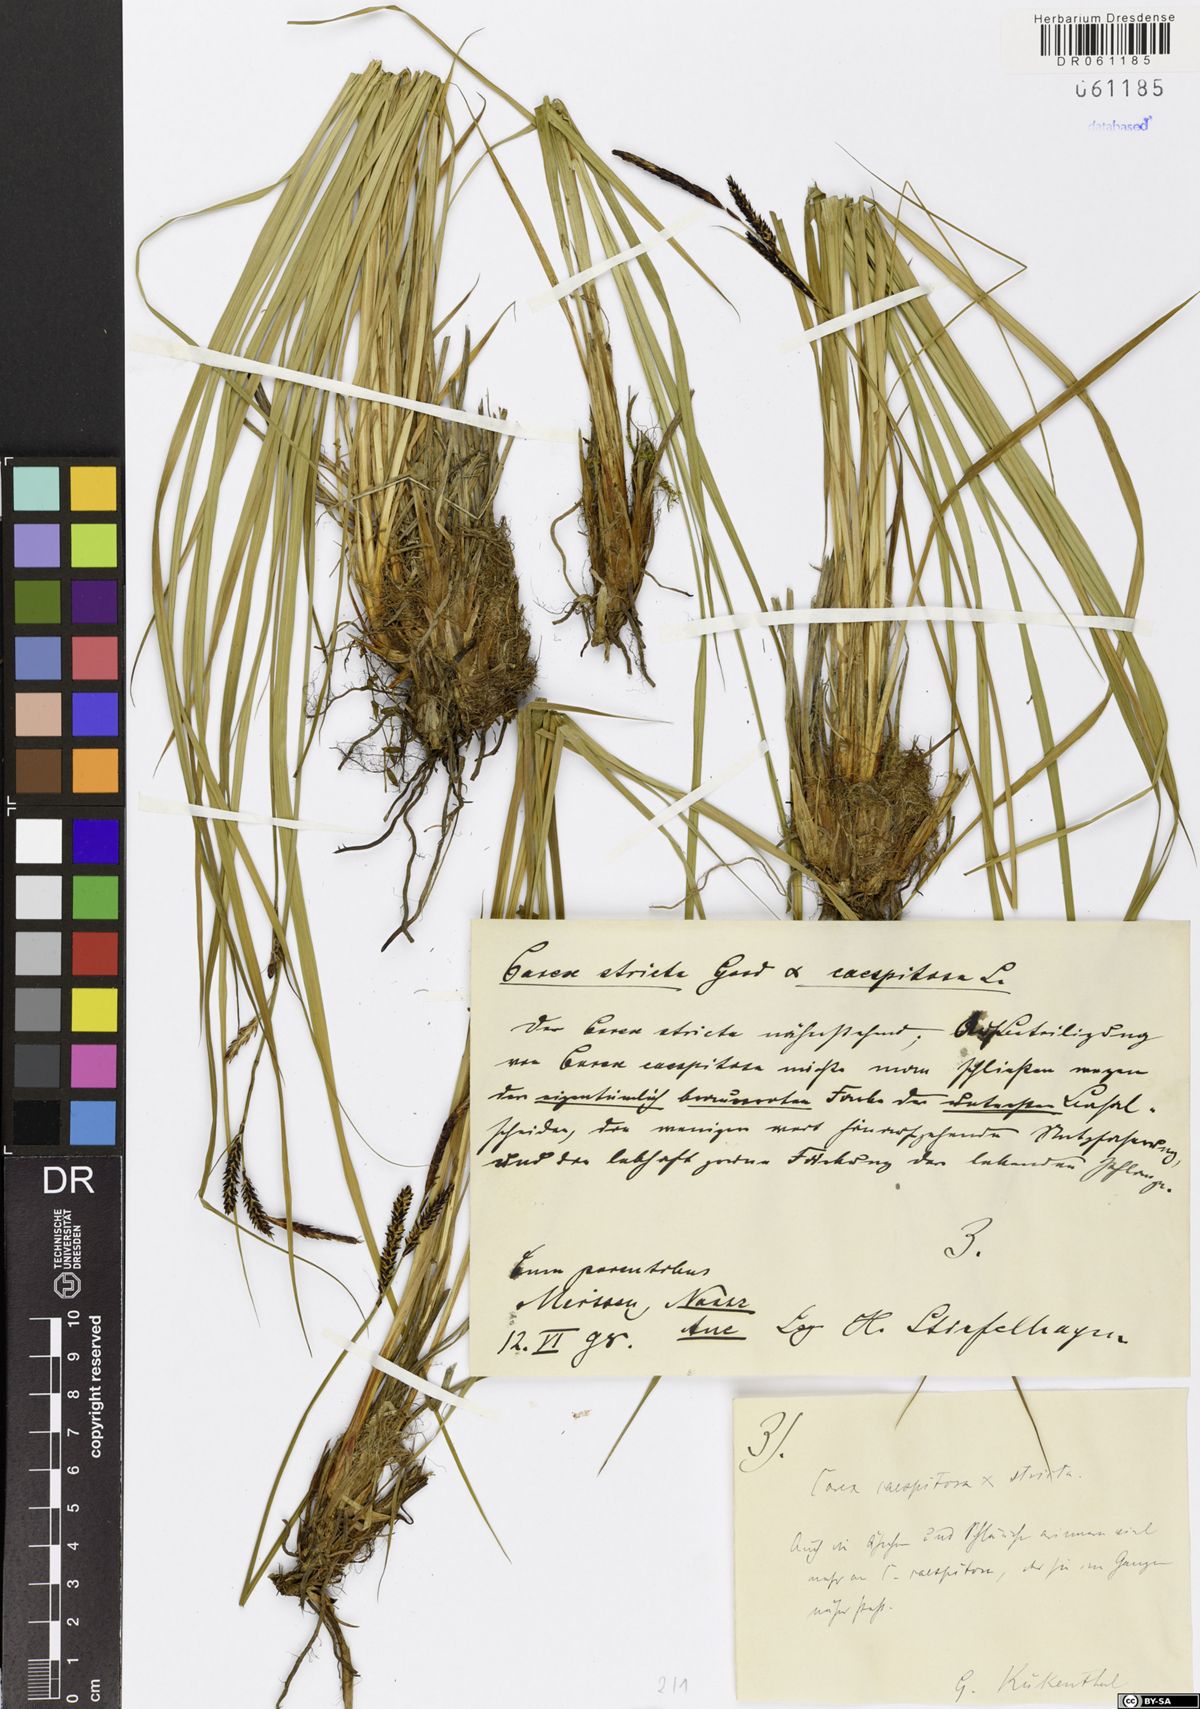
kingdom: Plantae
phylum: Tracheophyta
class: Liliopsida
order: Poales
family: Cyperaceae
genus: Carex
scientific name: Carex
